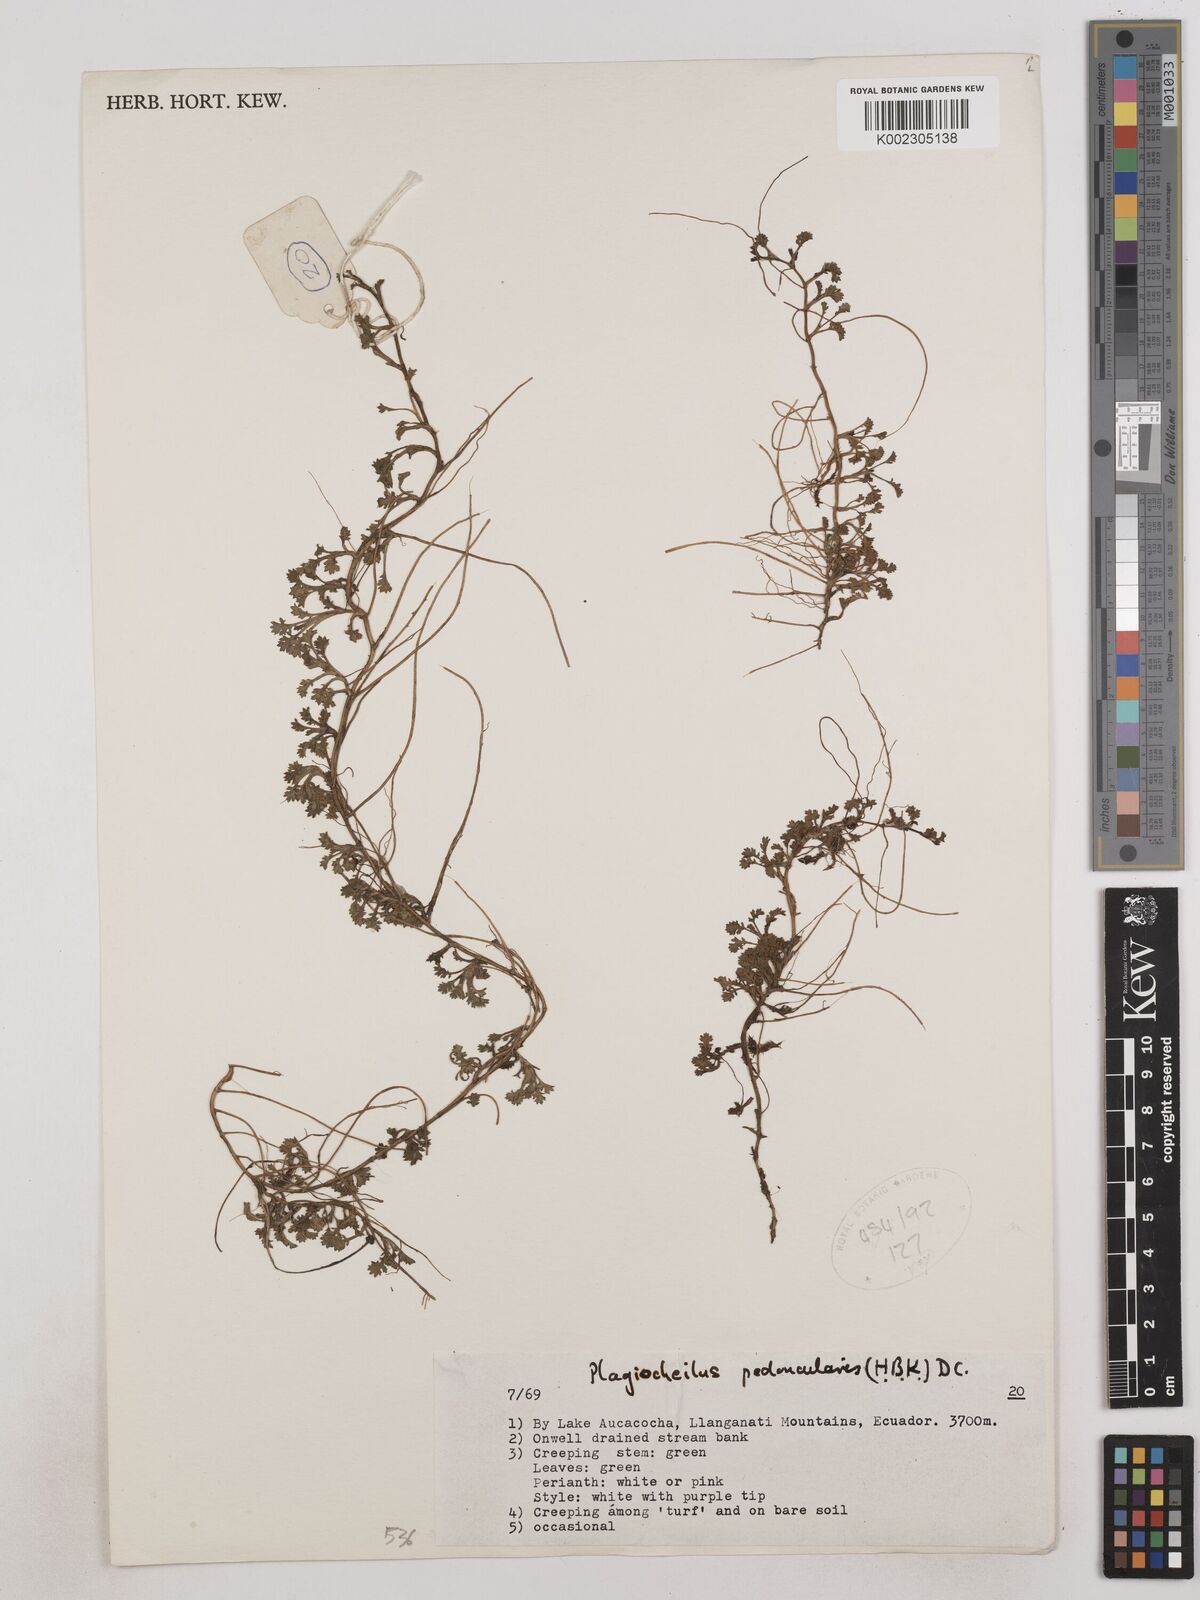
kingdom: Plantae
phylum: Tracheophyta
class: Magnoliopsida
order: Asterales
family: Asteraceae
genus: Plagiocheilus
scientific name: Plagiocheilus peduncularis
